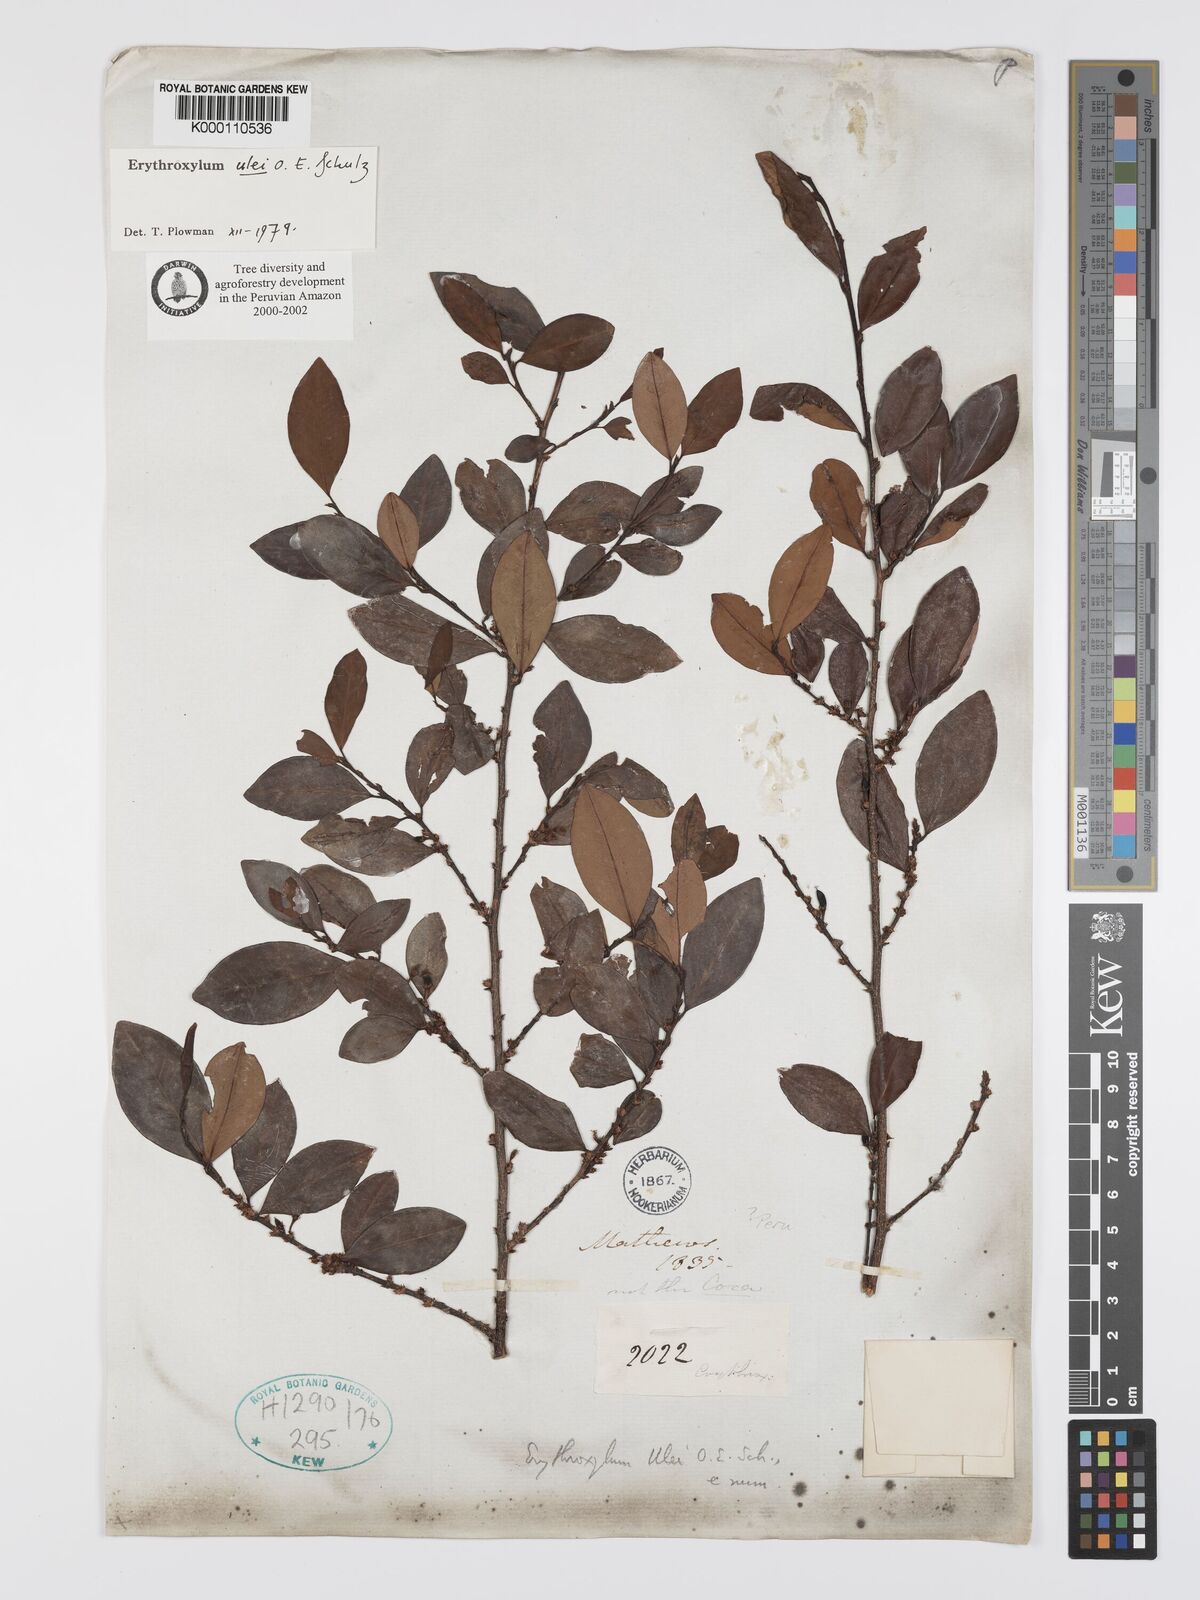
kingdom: Plantae
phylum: Tracheophyta
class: Magnoliopsida
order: Malpighiales
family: Erythroxylaceae
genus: Erythroxylum
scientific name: Erythroxylum ulei
